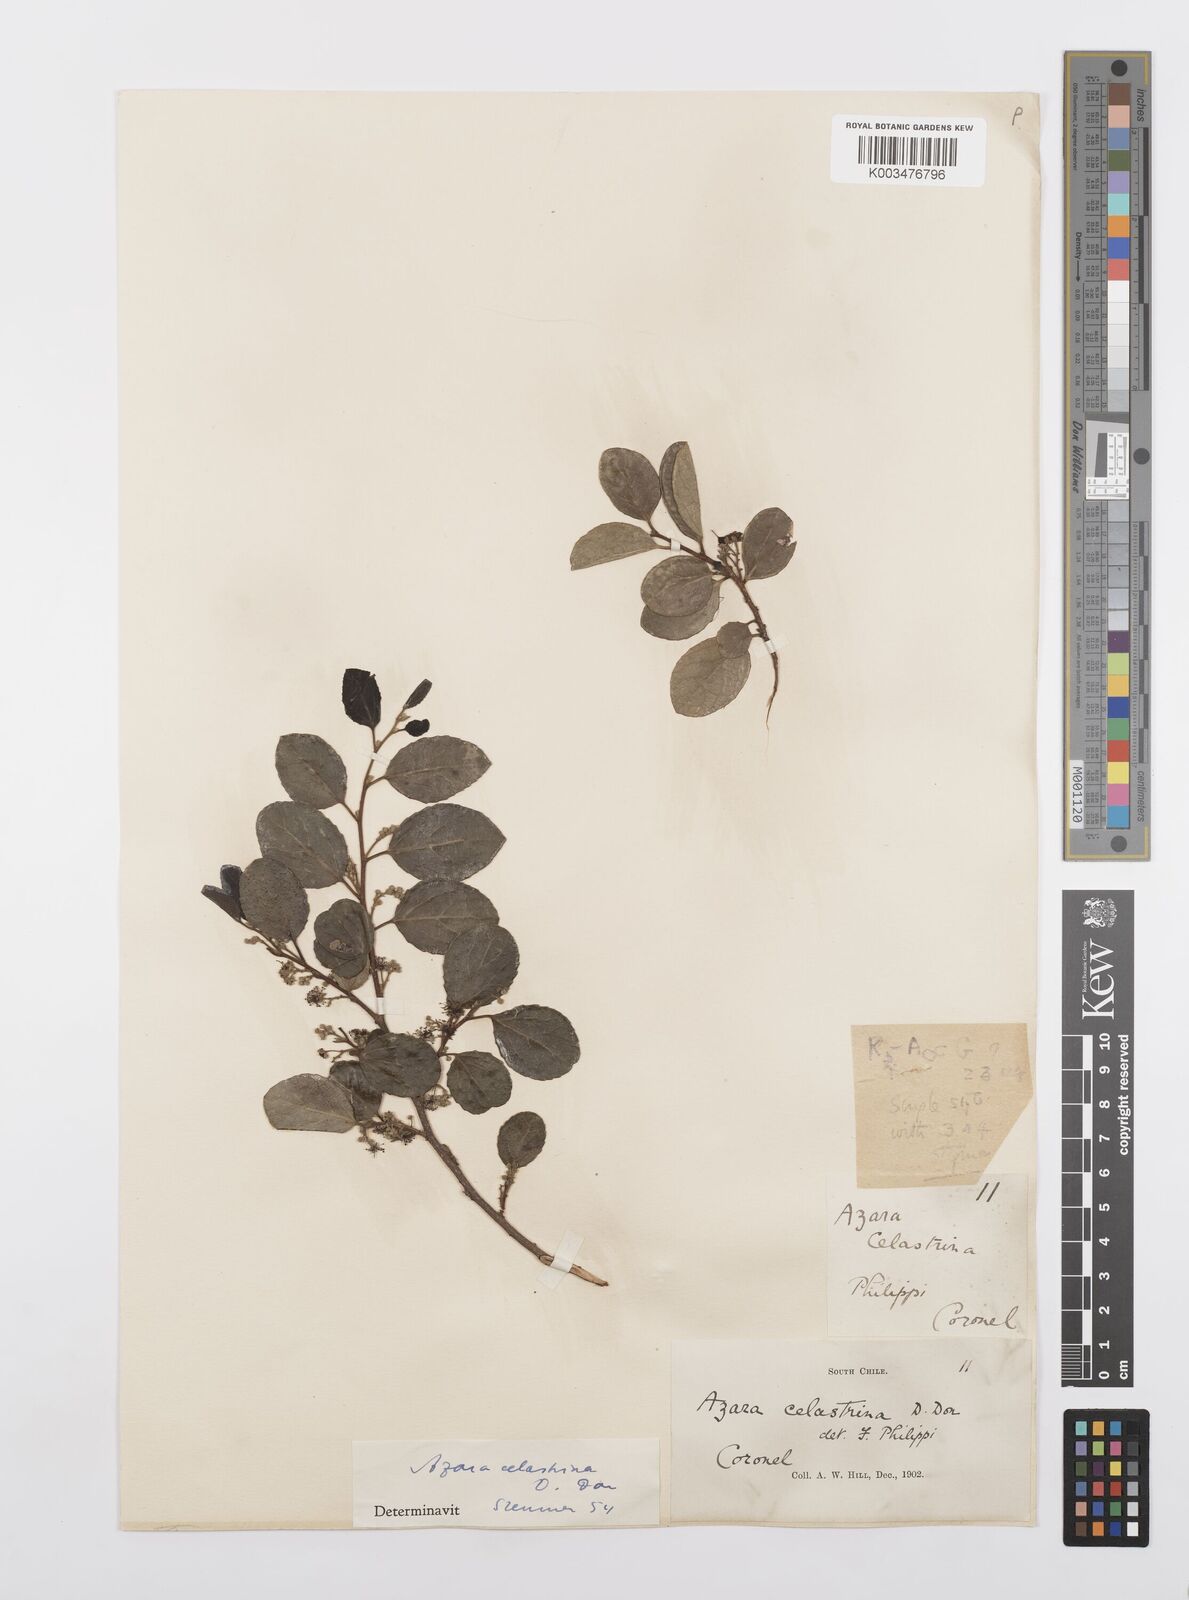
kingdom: Plantae
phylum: Tracheophyta
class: Magnoliopsida
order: Malpighiales
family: Salicaceae
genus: Azara
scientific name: Azara celastrina
